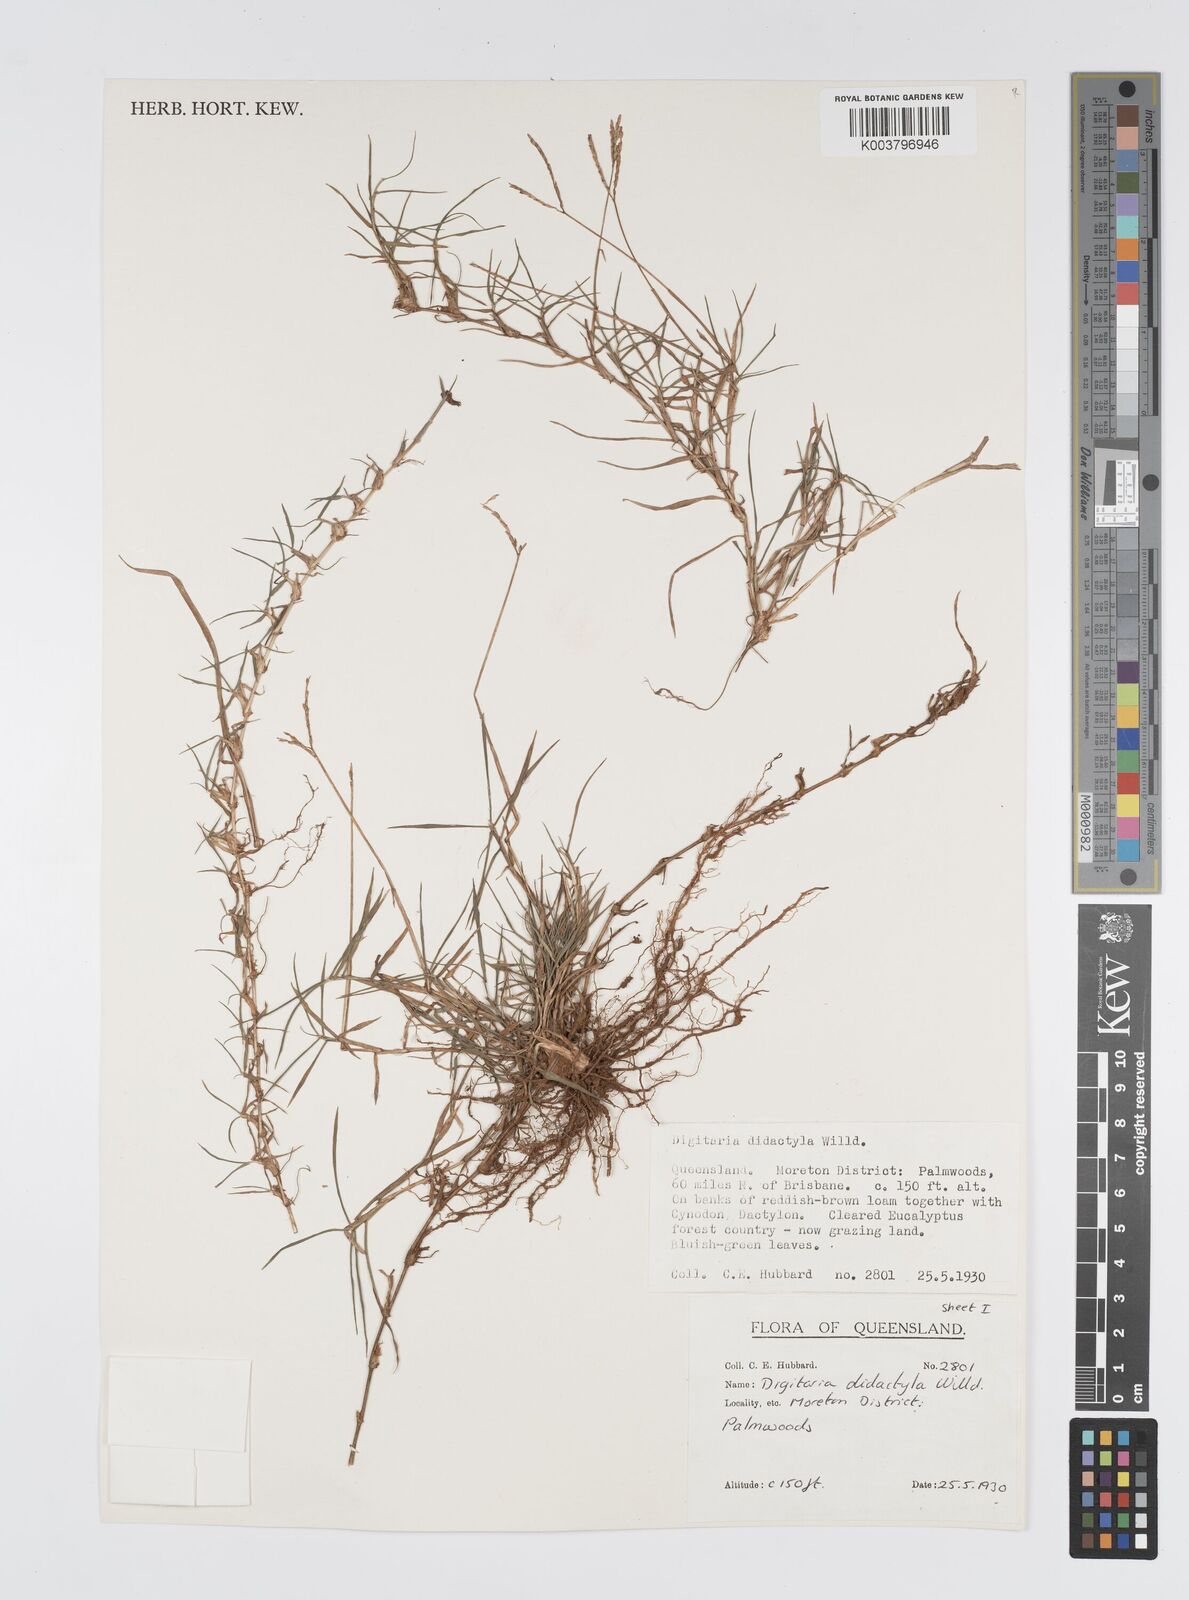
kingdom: Plantae
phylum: Tracheophyta
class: Liliopsida
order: Poales
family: Poaceae
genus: Digitaria
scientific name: Digitaria didactyla
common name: Blue couch
